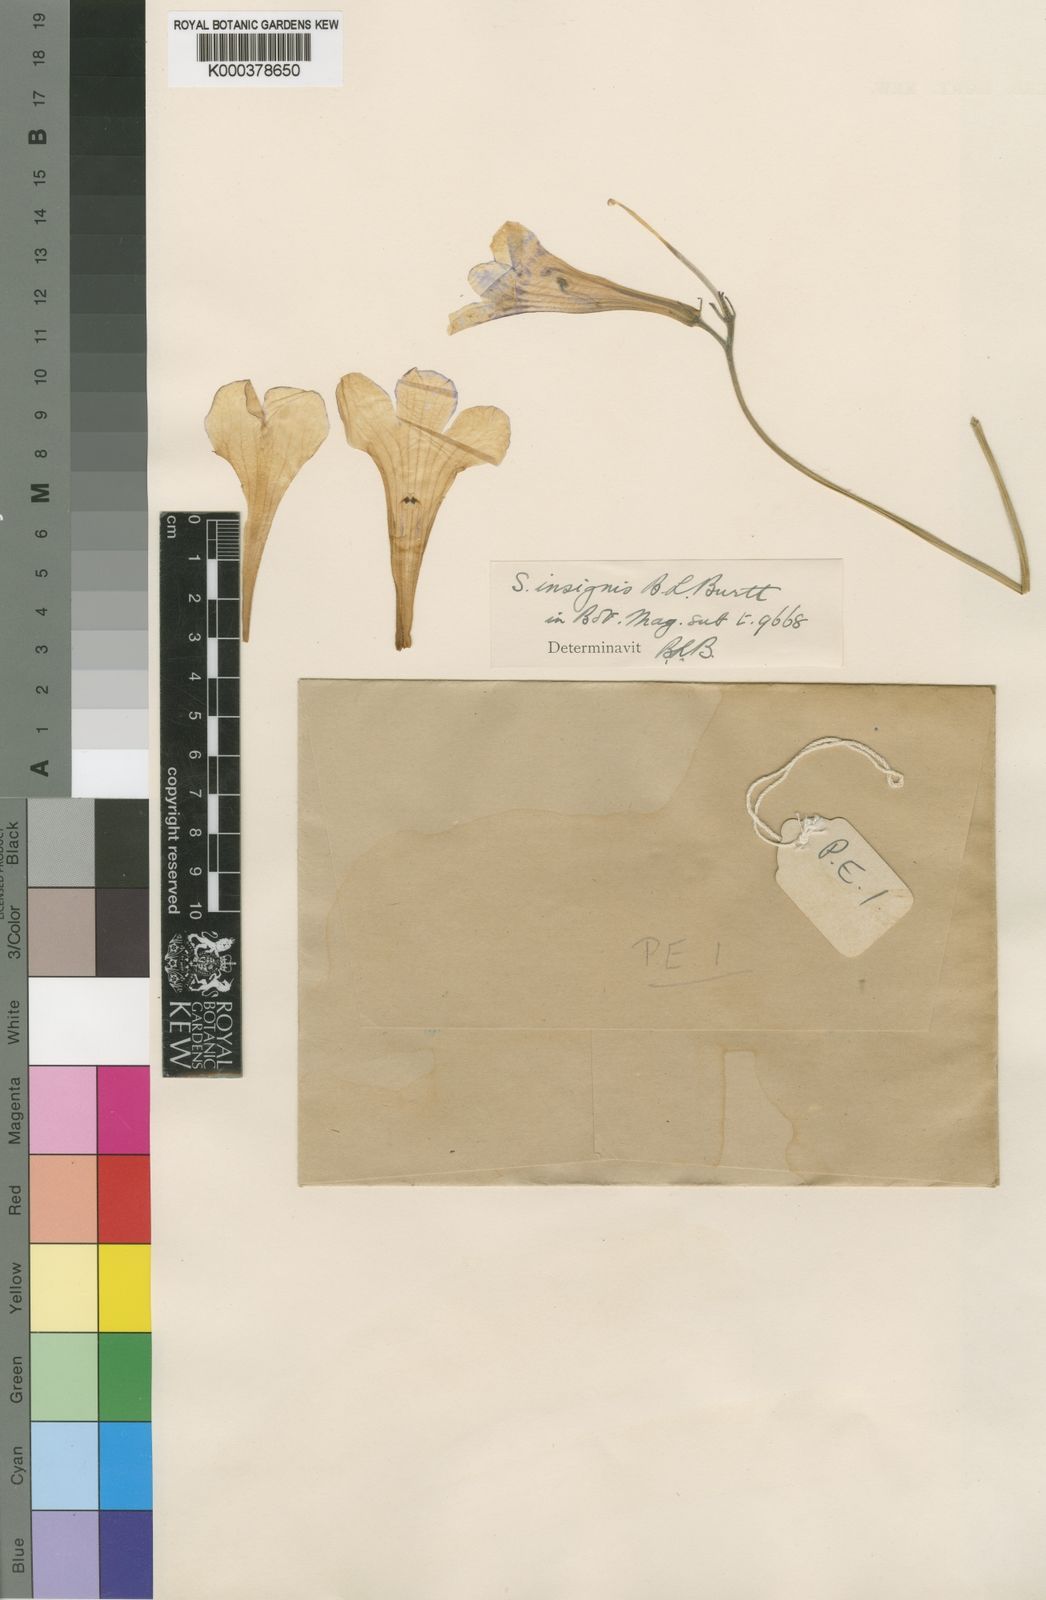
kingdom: Plantae
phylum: Tracheophyta
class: Magnoliopsida
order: Lamiales
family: Gesneriaceae
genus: Streptocarpus
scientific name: Streptocarpus primuliflorus
